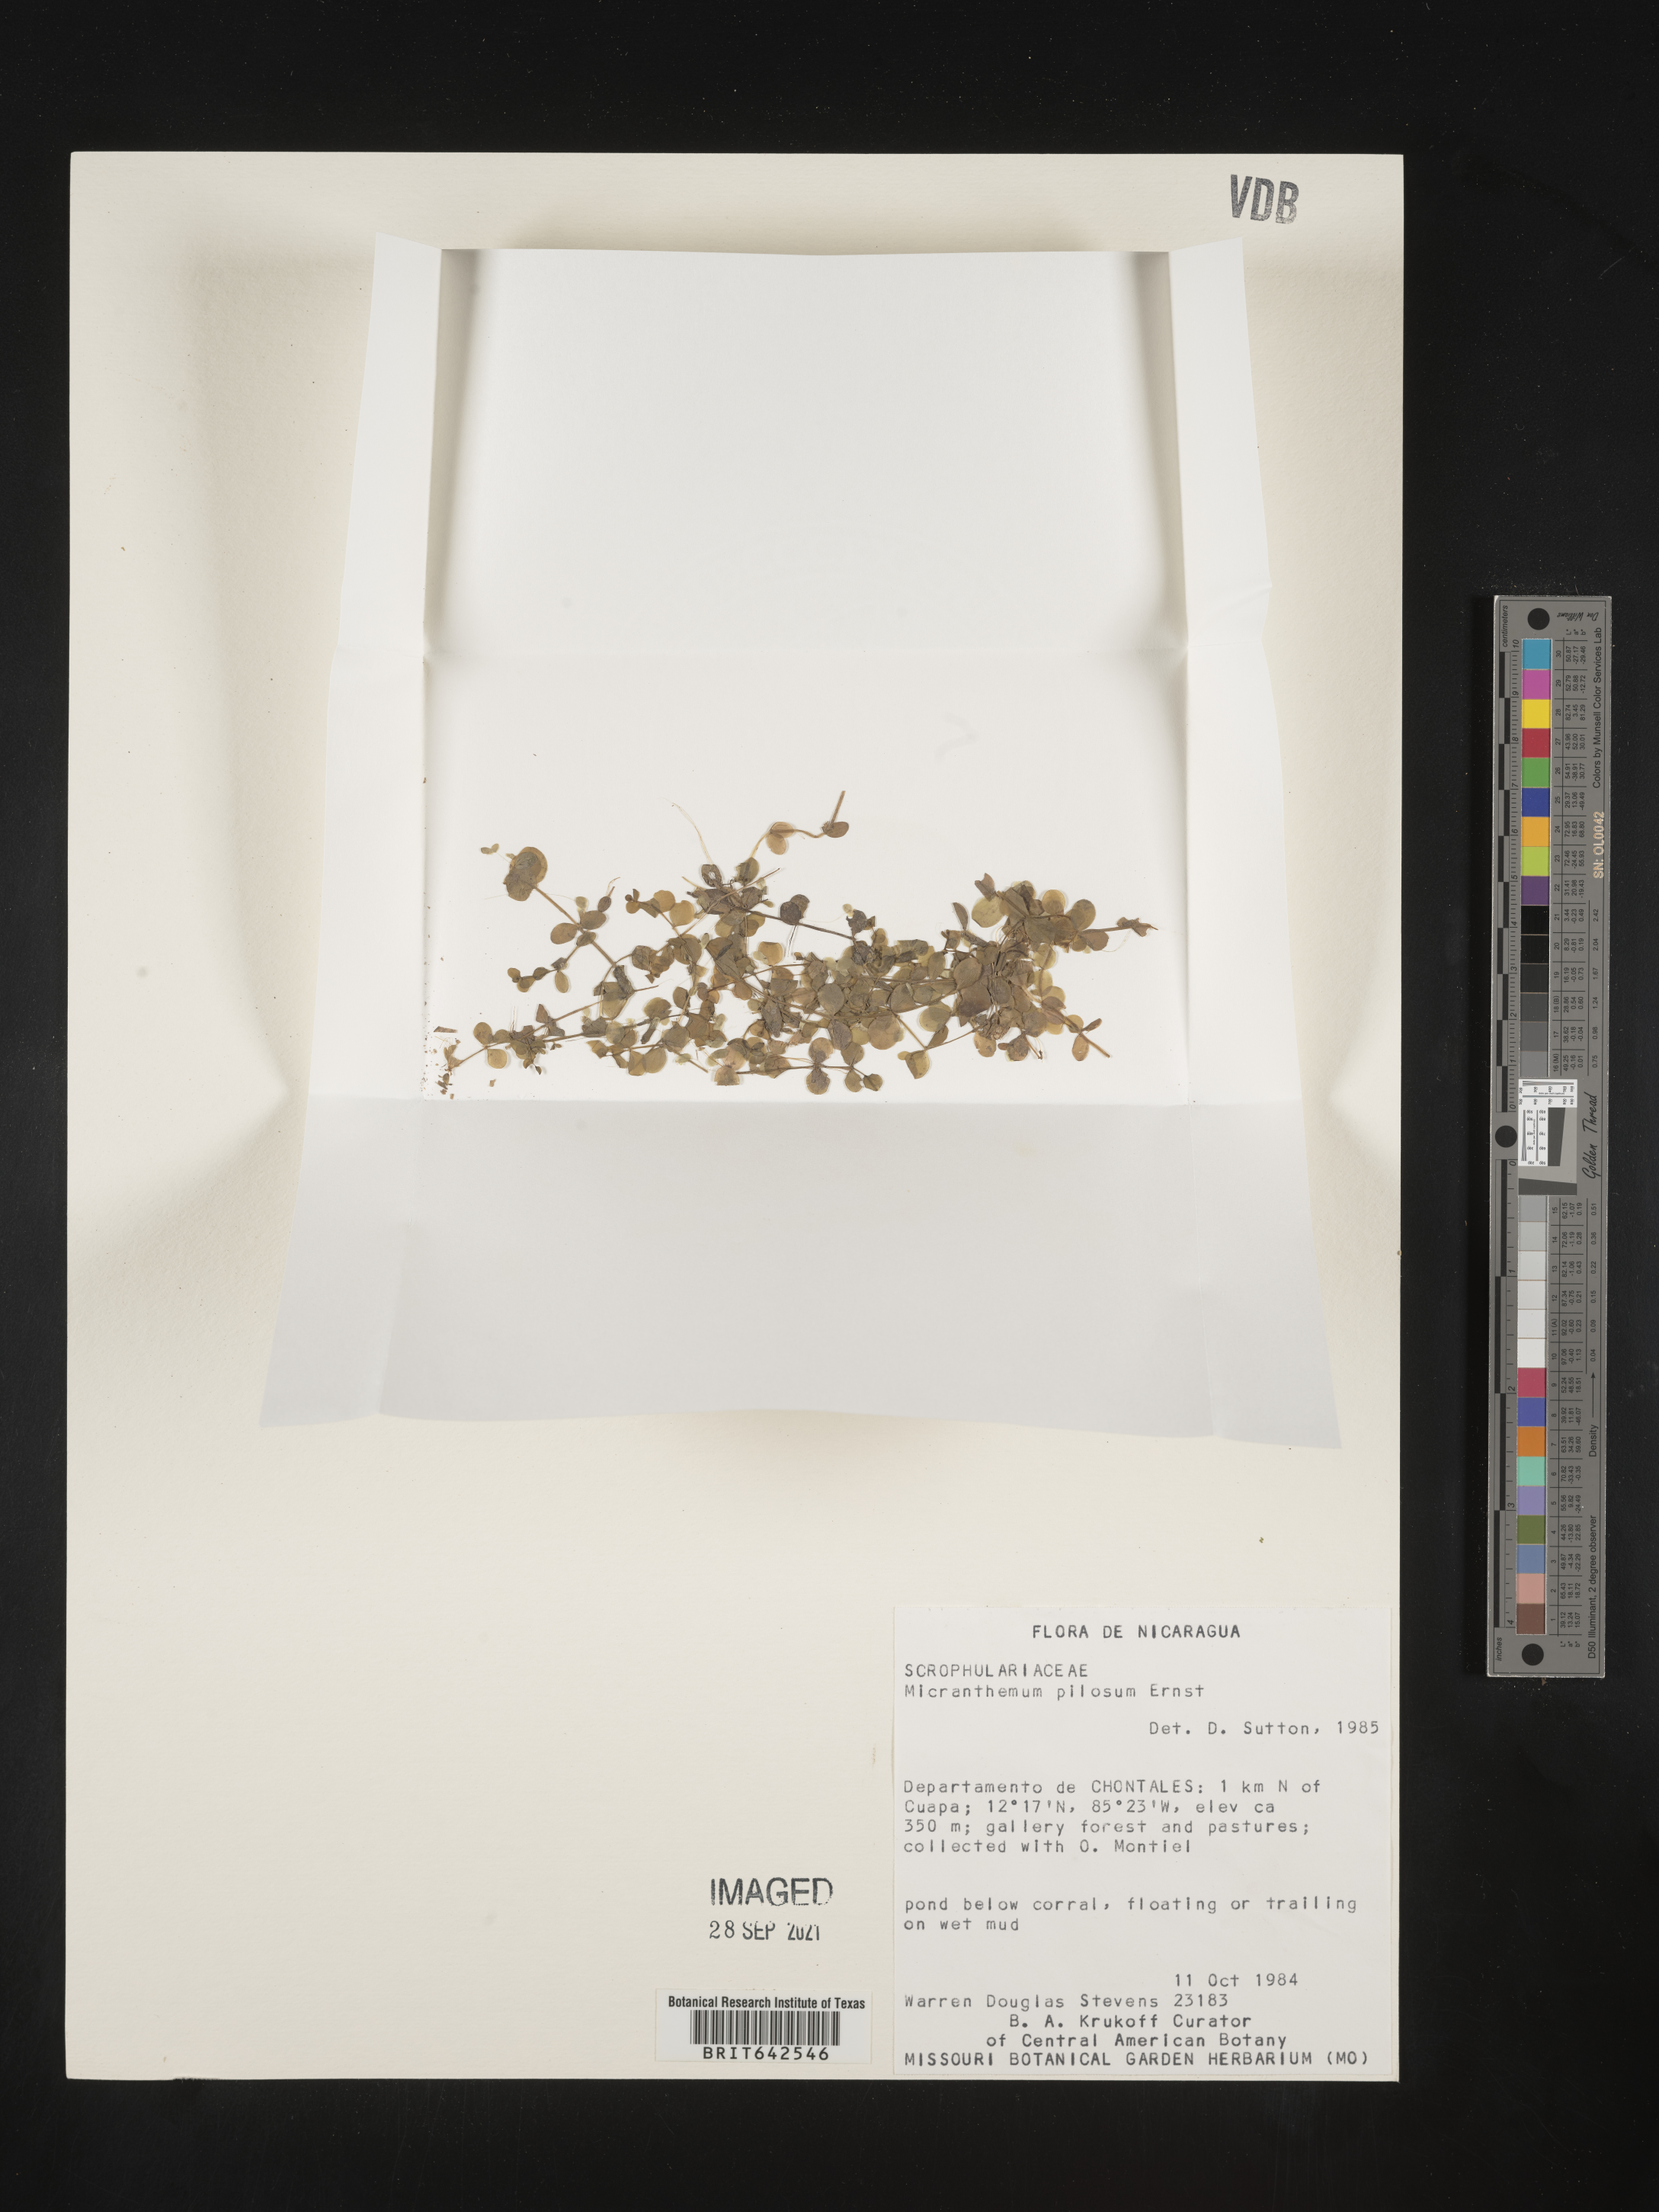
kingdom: Plantae
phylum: Tracheophyta
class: Magnoliopsida
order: Lamiales
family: Linderniaceae
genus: Micranthemum
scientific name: Micranthemum
